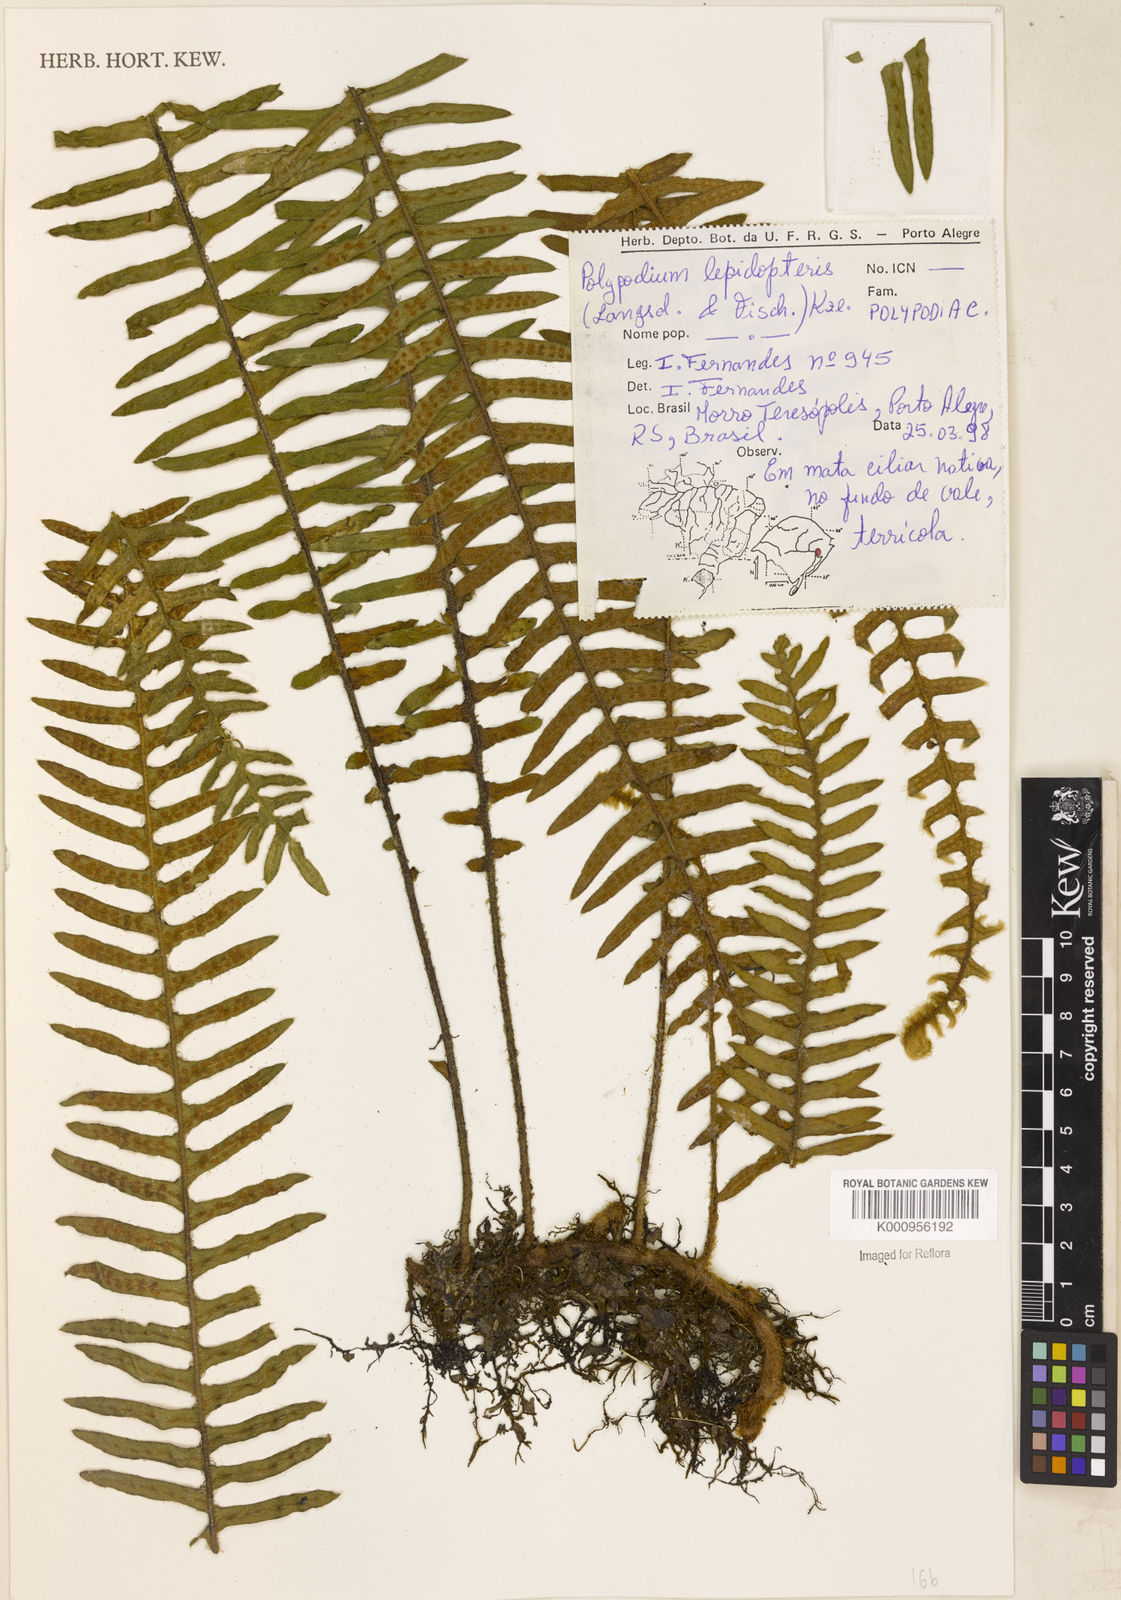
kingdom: Plantae
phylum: Tracheophyta
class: Polypodiopsida
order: Polypodiales
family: Polypodiaceae
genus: Pleopeltis
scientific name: Pleopeltis lepidopteris
